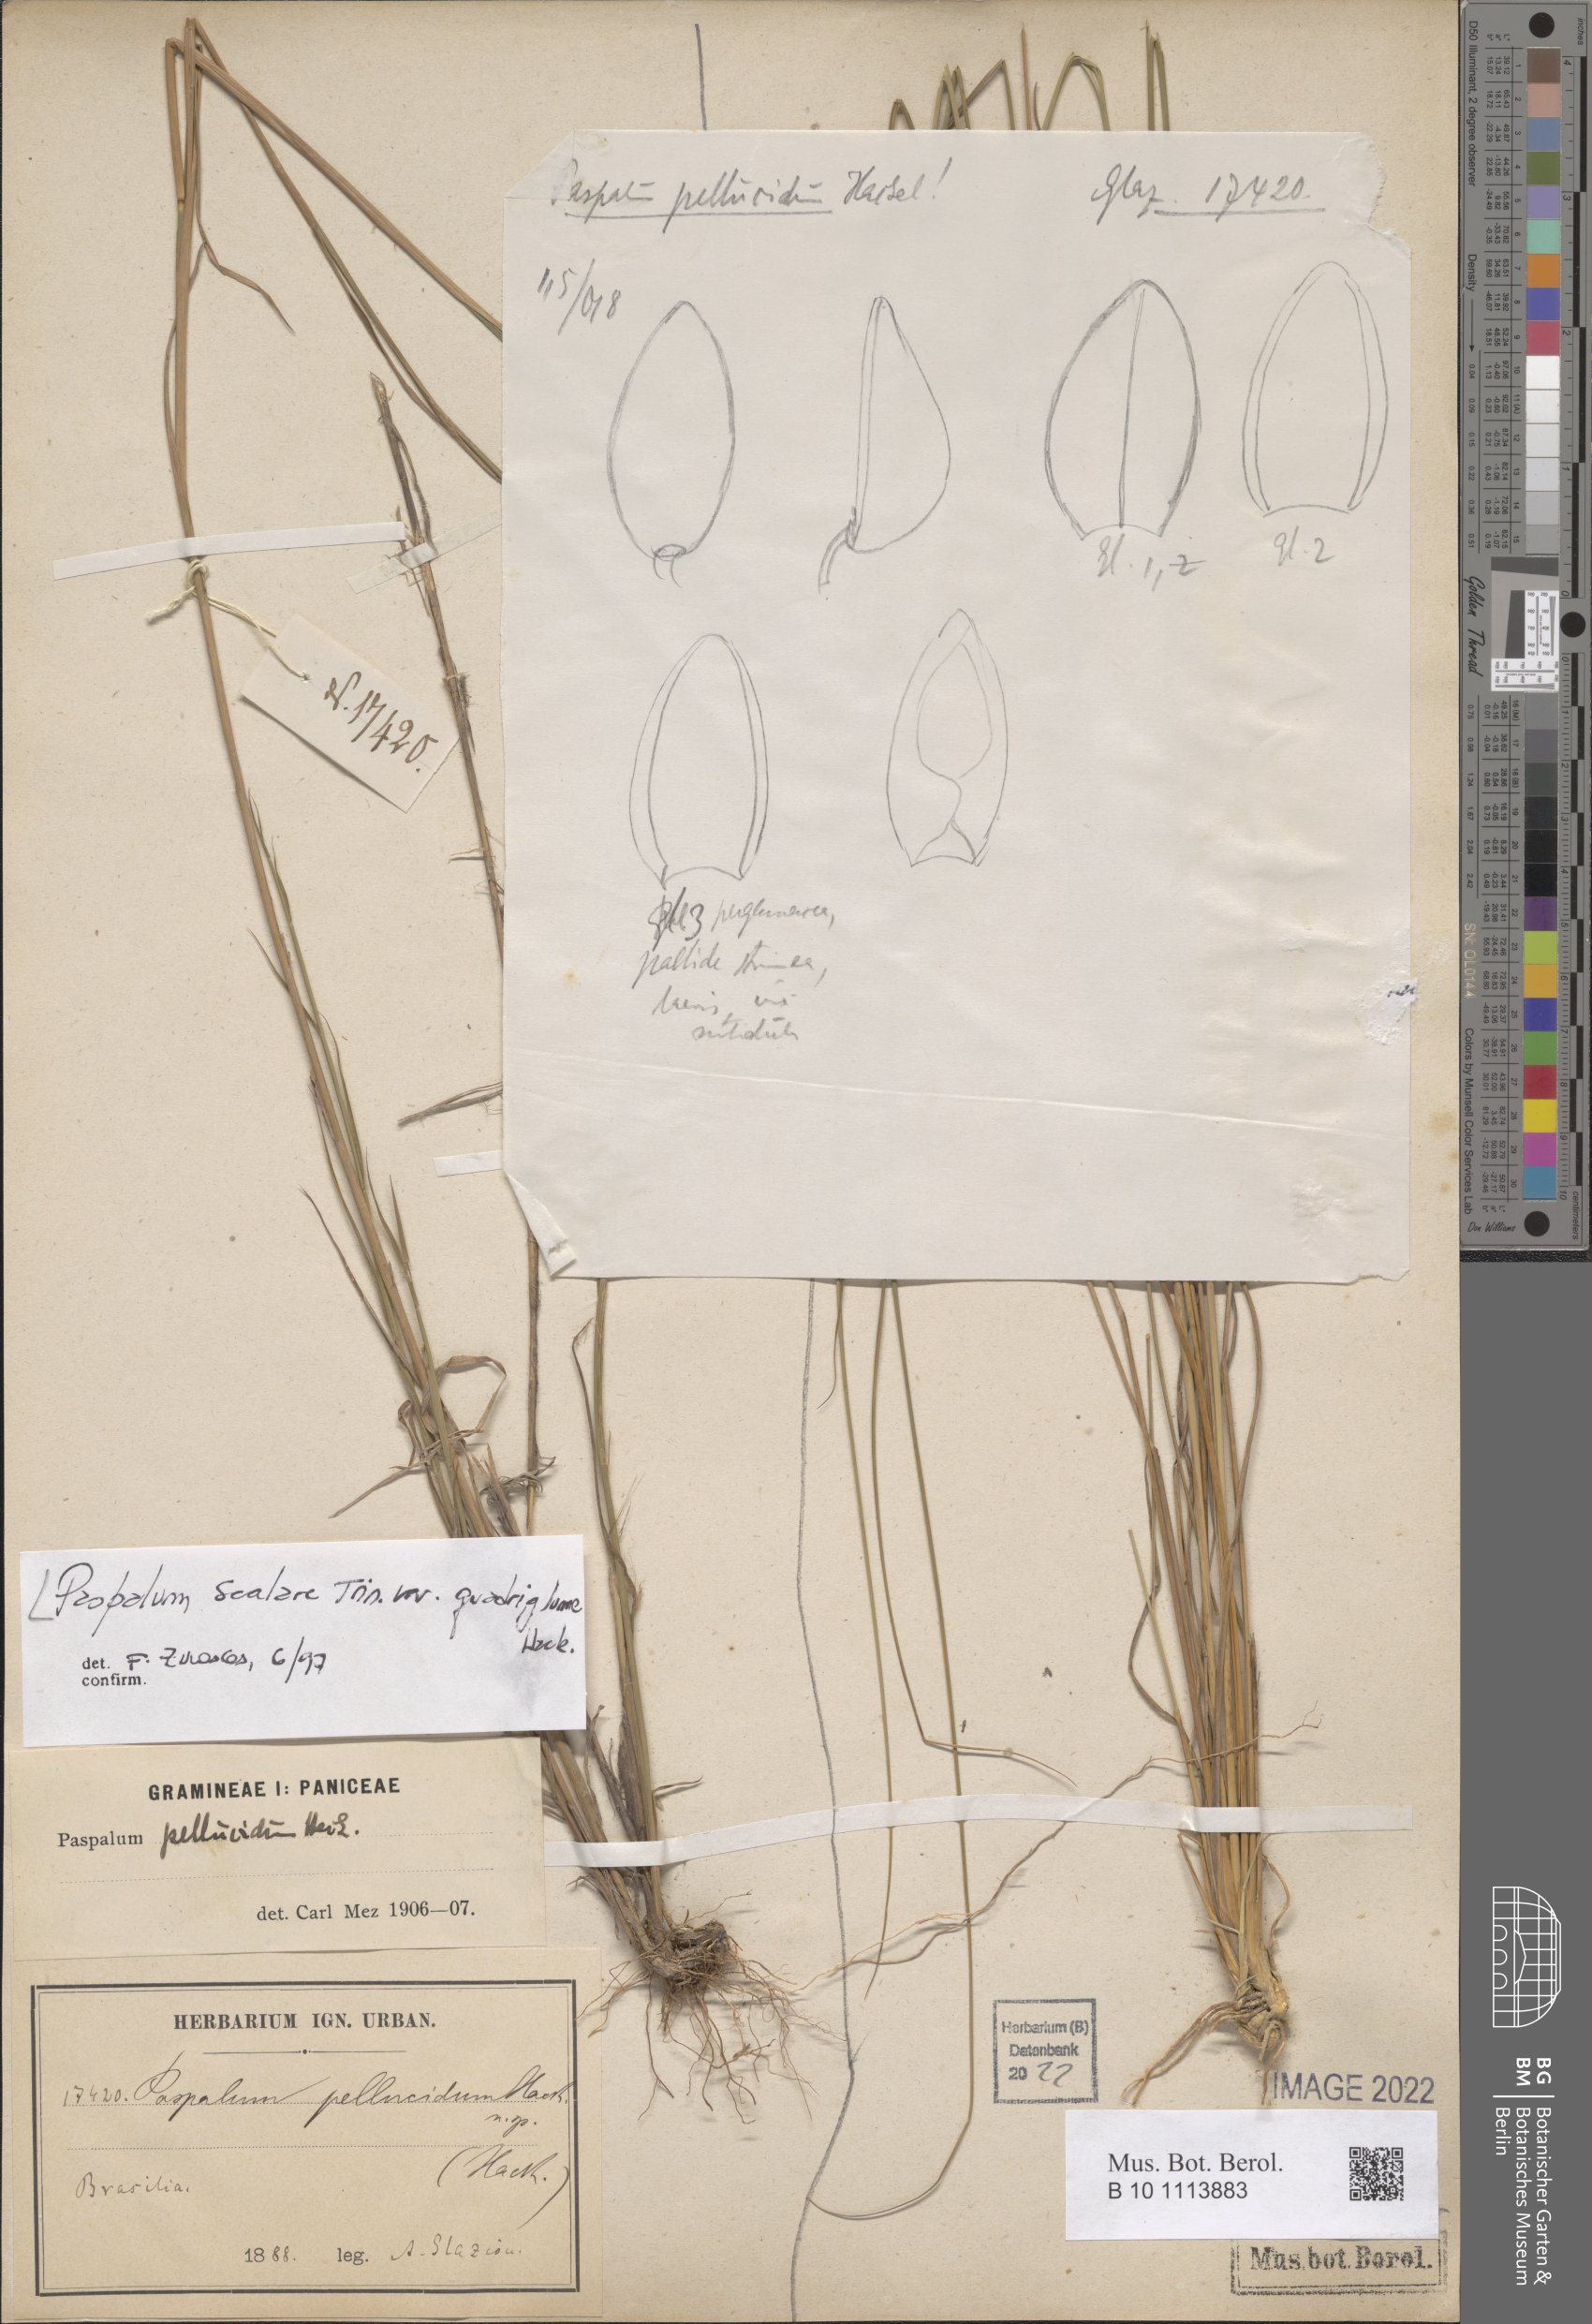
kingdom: Plantae
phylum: Tracheophyta
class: Liliopsida
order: Poales
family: Poaceae
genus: Paspalum
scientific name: Paspalum scalare
